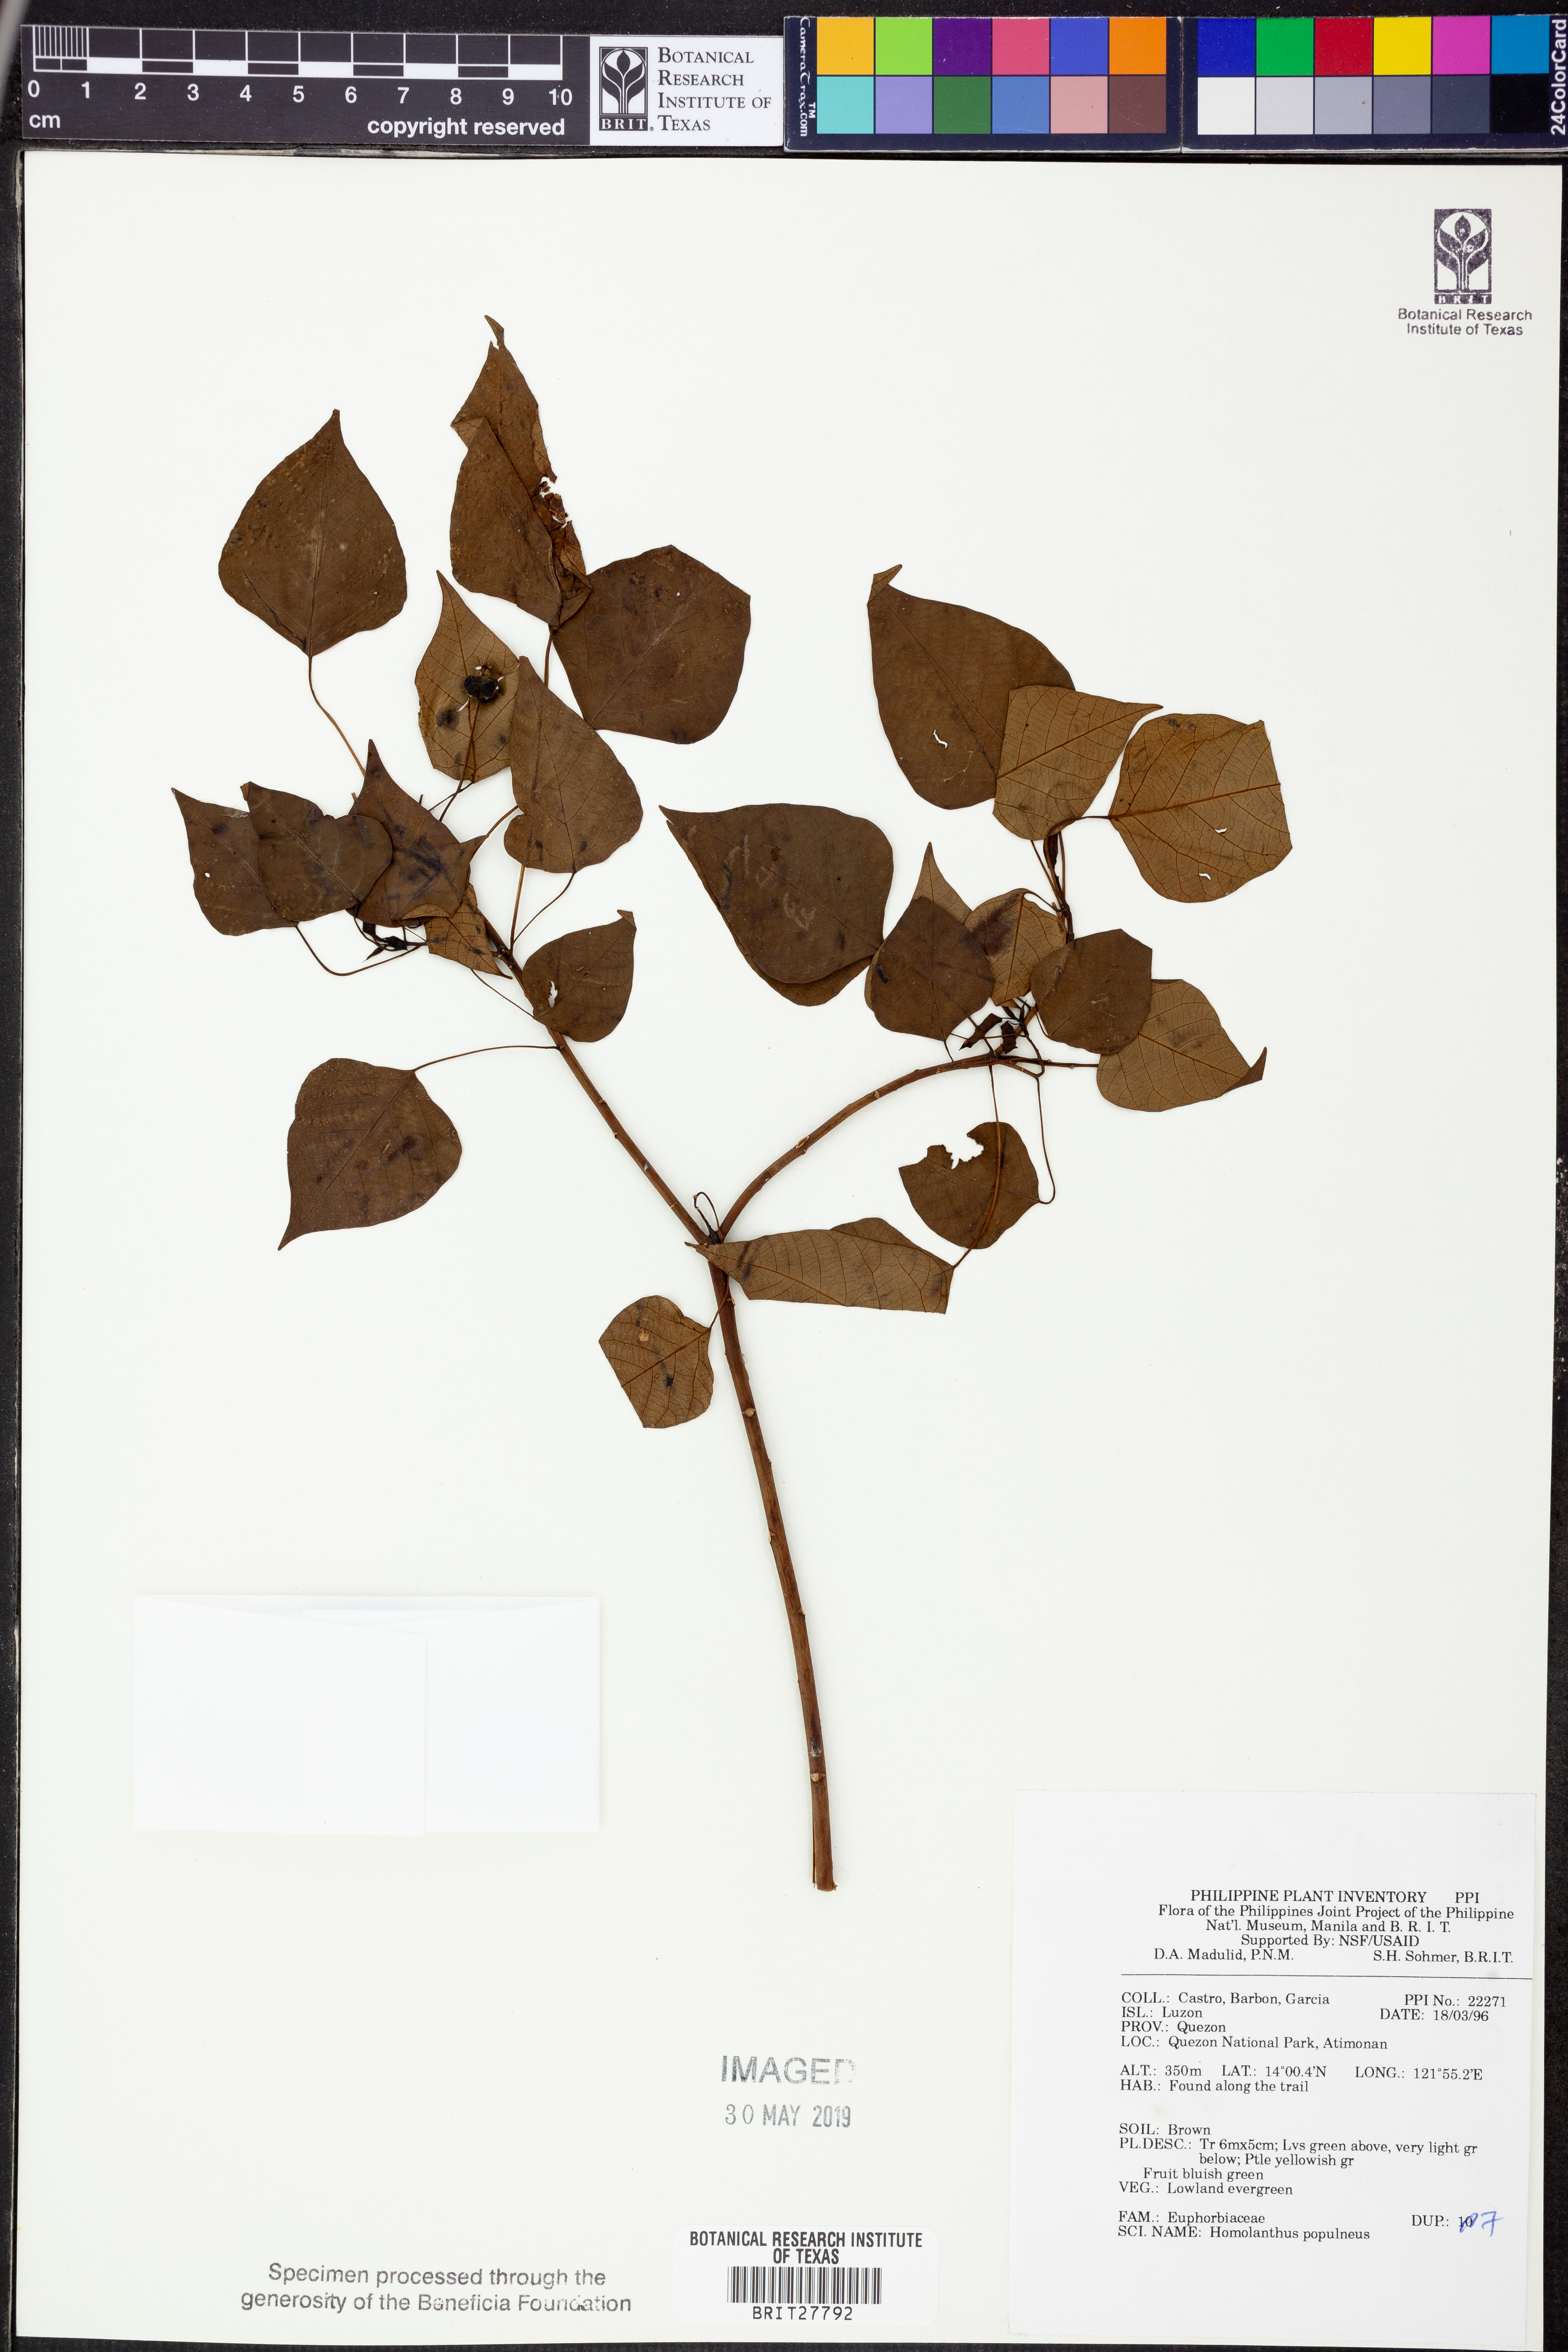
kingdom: Plantae
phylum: Tracheophyta
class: Magnoliopsida
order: Malpighiales
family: Euphorbiaceae
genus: Homalanthus
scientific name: Homalanthus populneus
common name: Spurge
